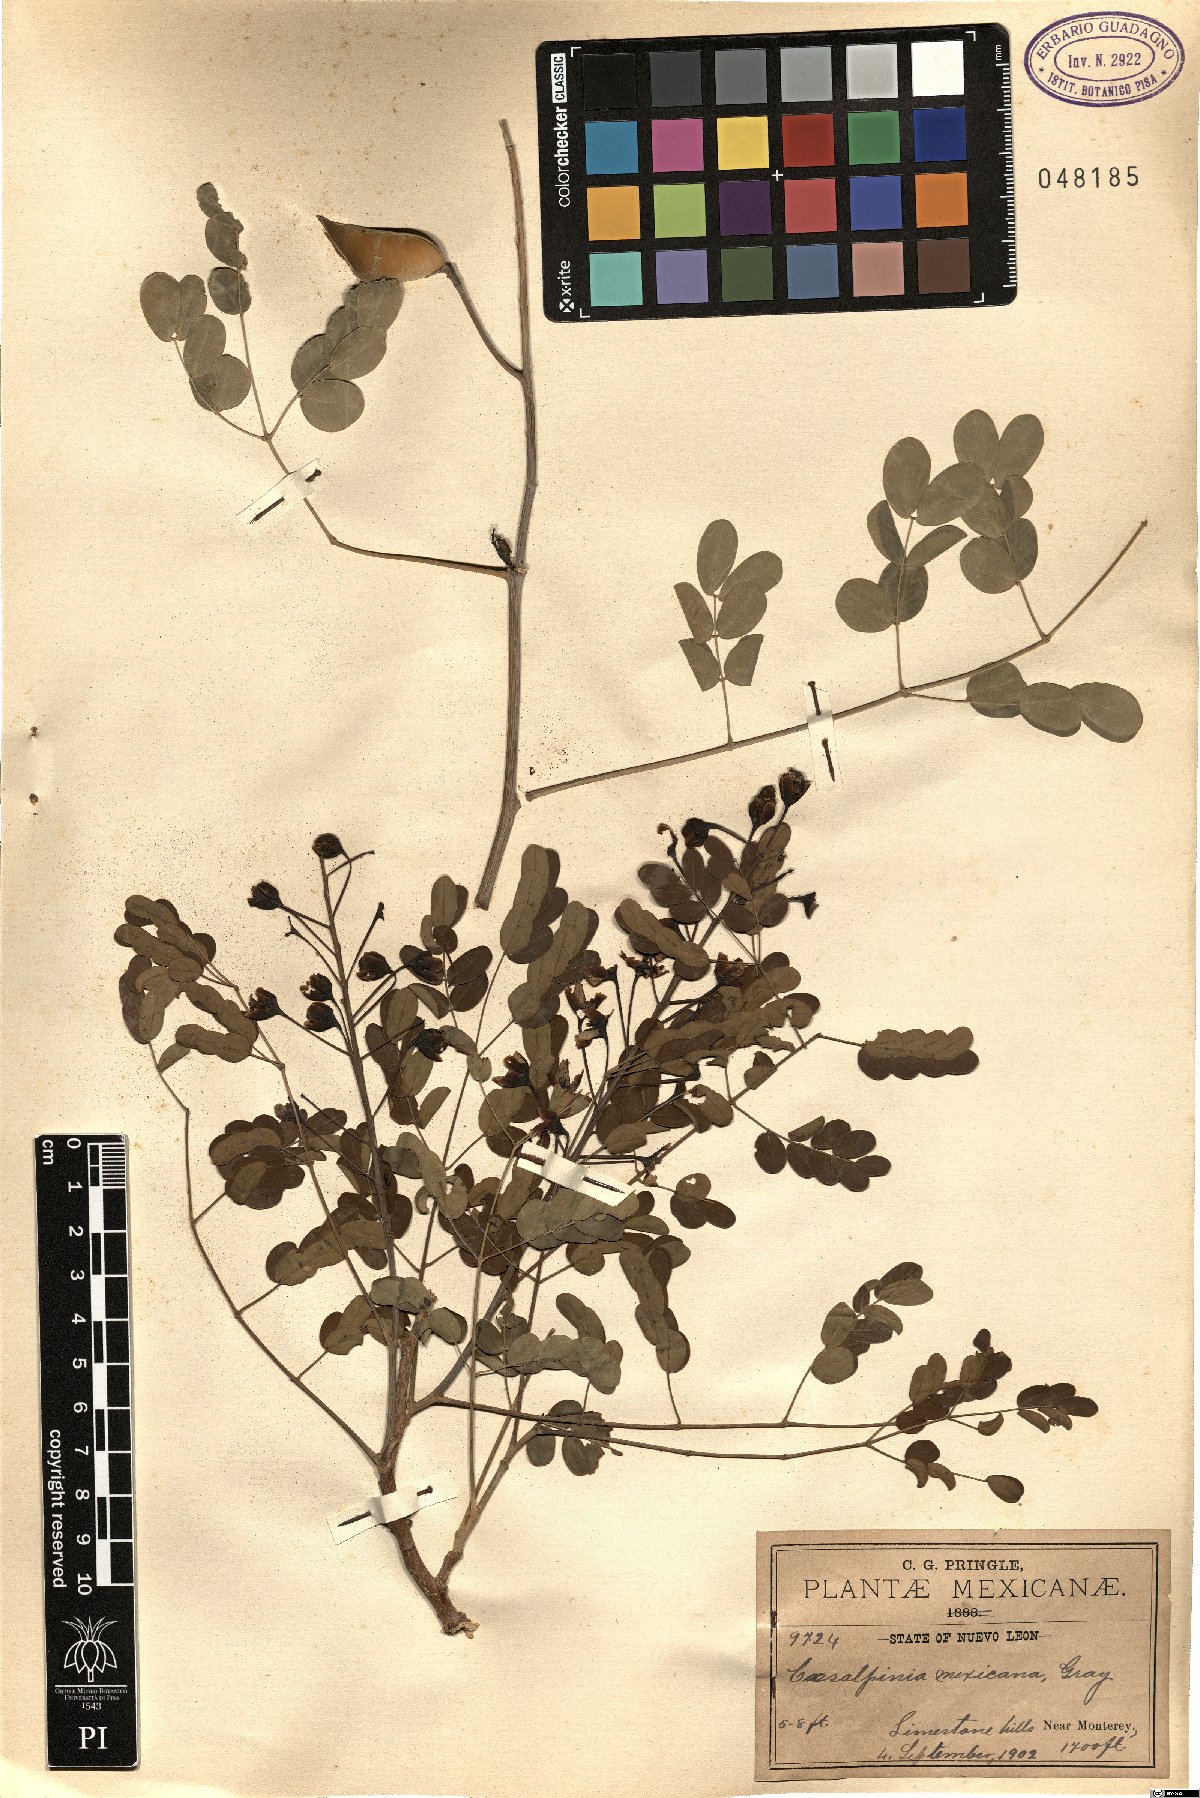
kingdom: Plantae
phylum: Tracheophyta
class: Magnoliopsida
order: Fabales
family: Fabaceae
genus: Erythrostemon
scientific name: Erythrostemon mexicanus
